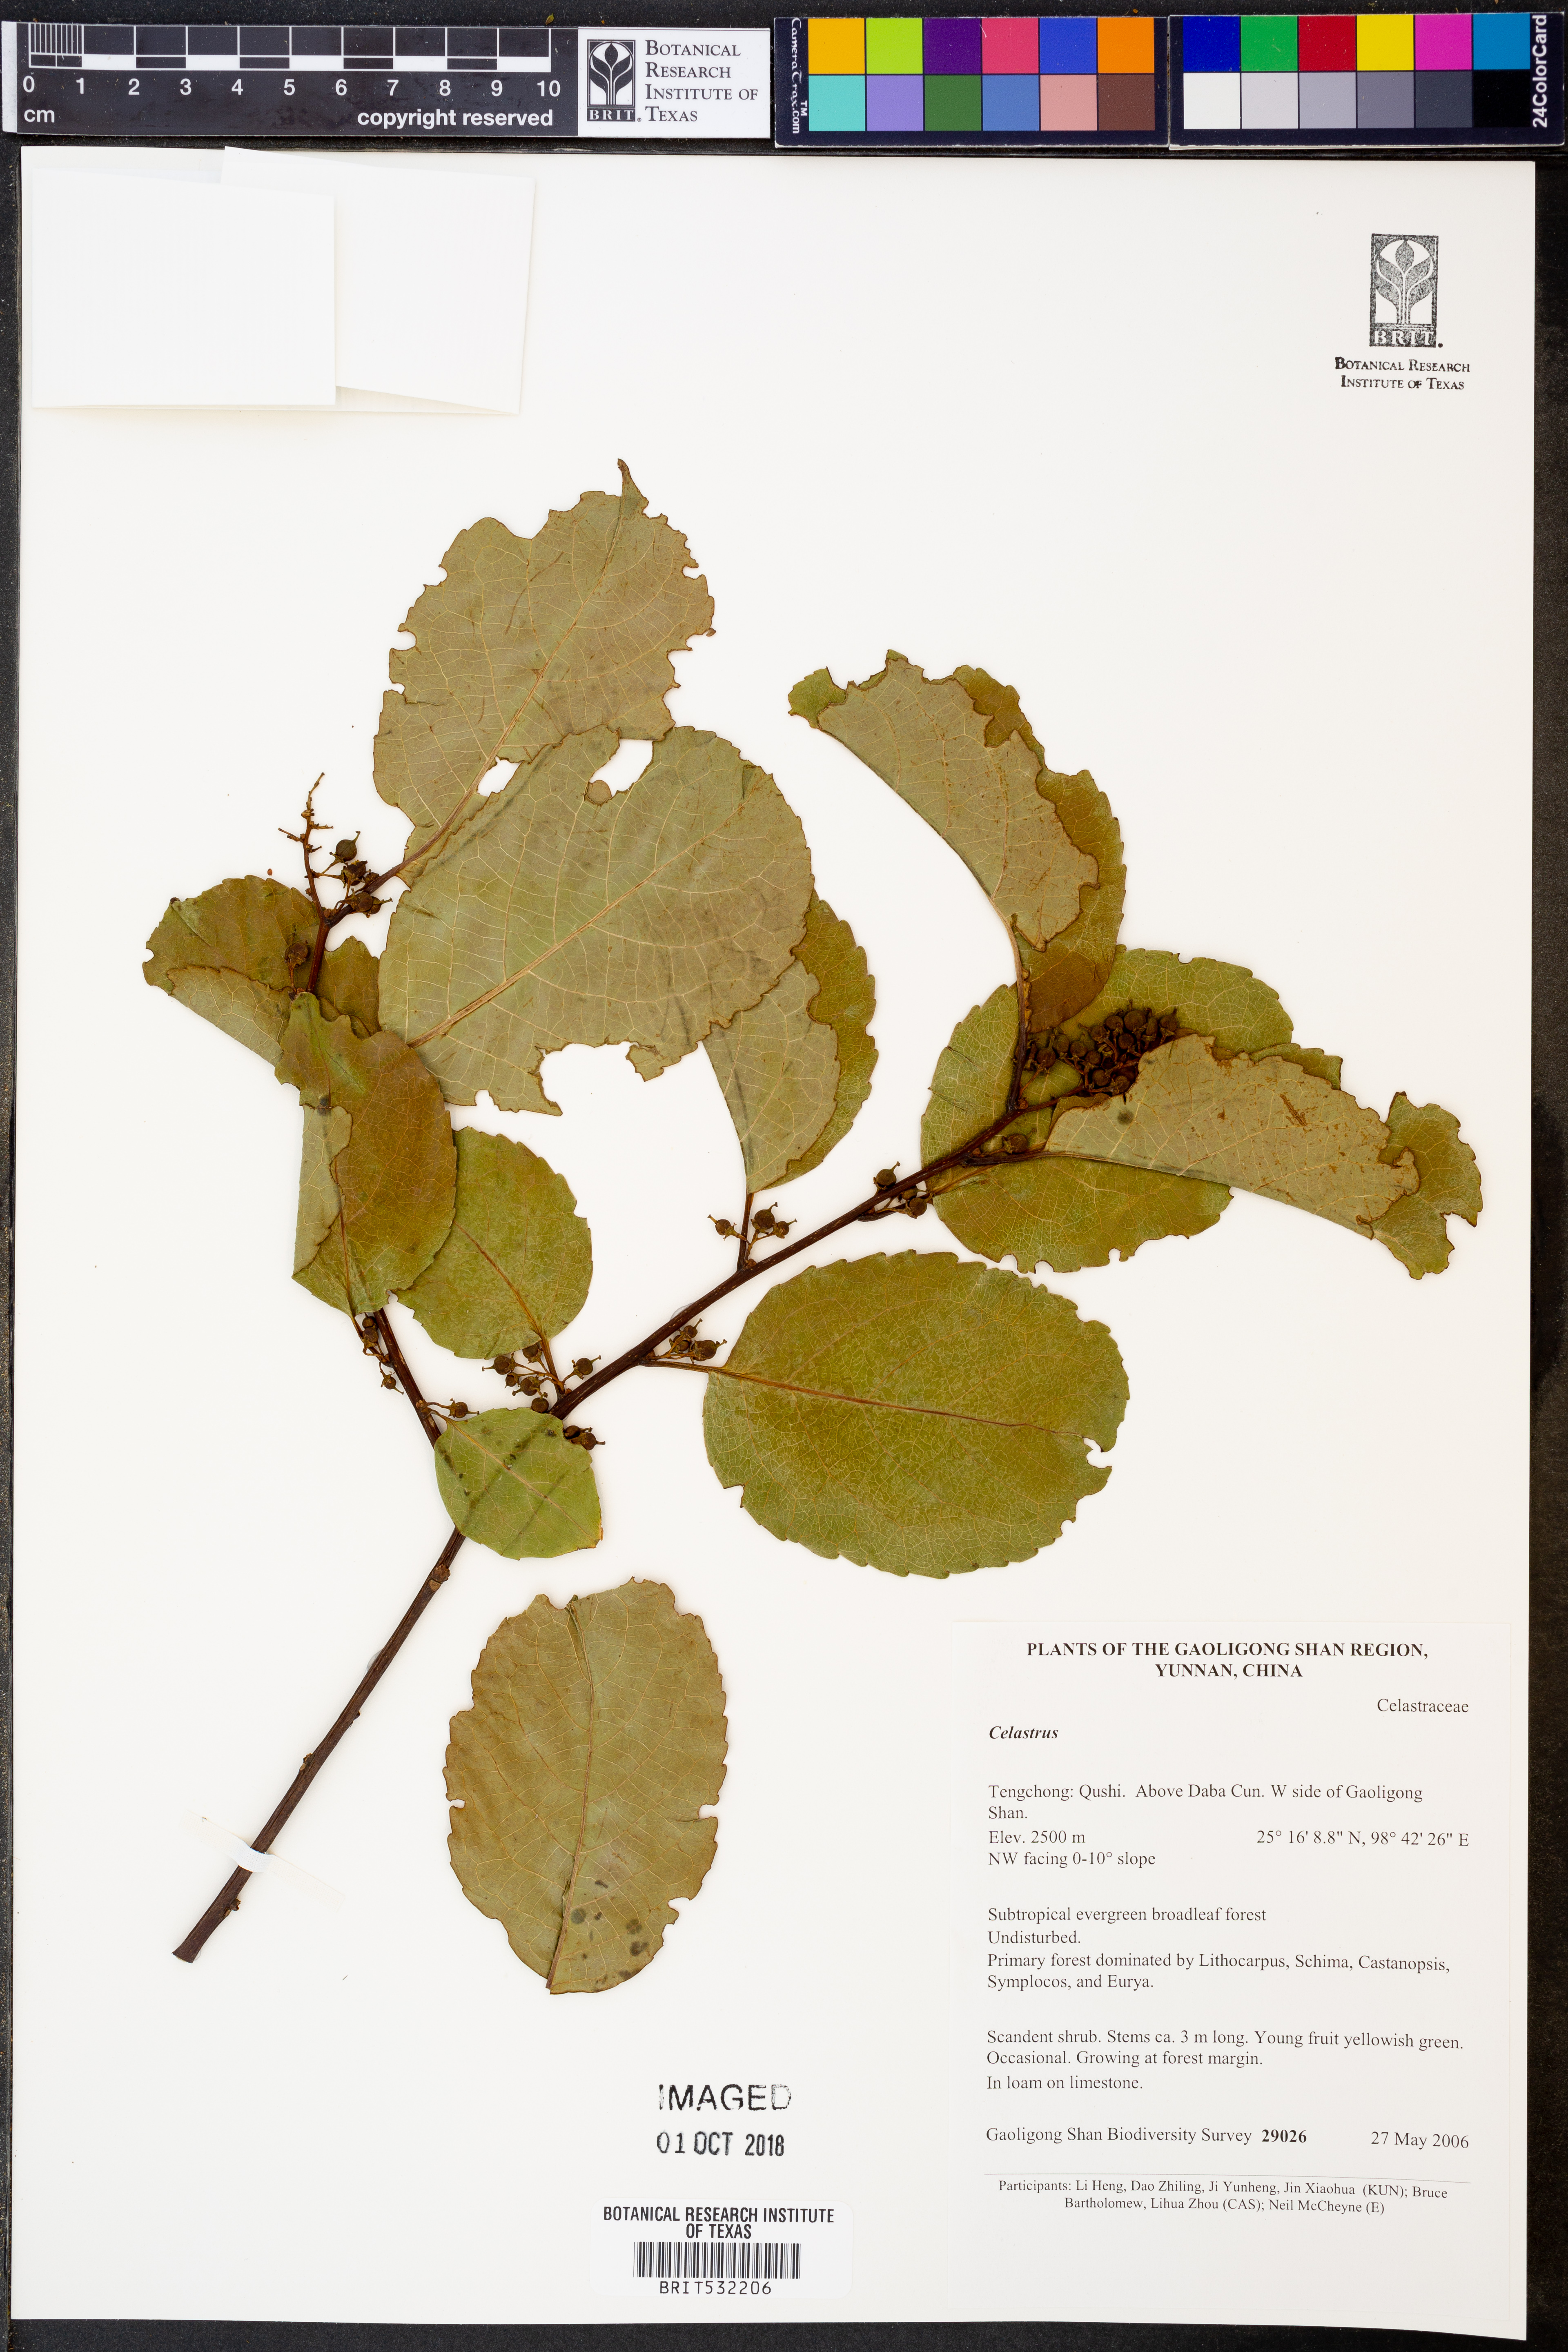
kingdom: Plantae
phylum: Tracheophyta
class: Magnoliopsida
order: Celastrales
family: Celastraceae
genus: Celastrus
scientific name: Celastrus
